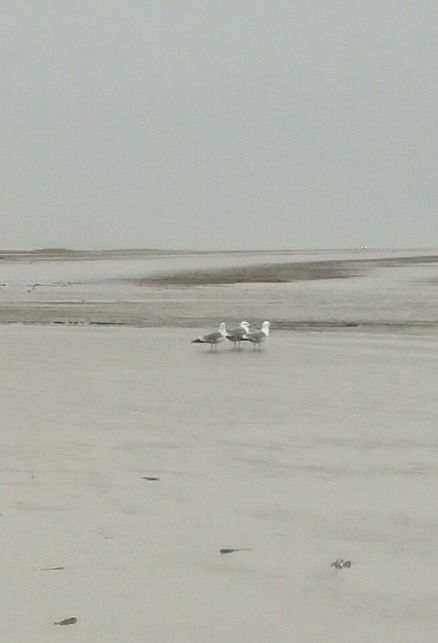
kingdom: Animalia
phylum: Chordata
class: Aves
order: Charadriiformes
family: Laridae
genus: Larus
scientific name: Larus argentatus
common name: Sølvmåge
